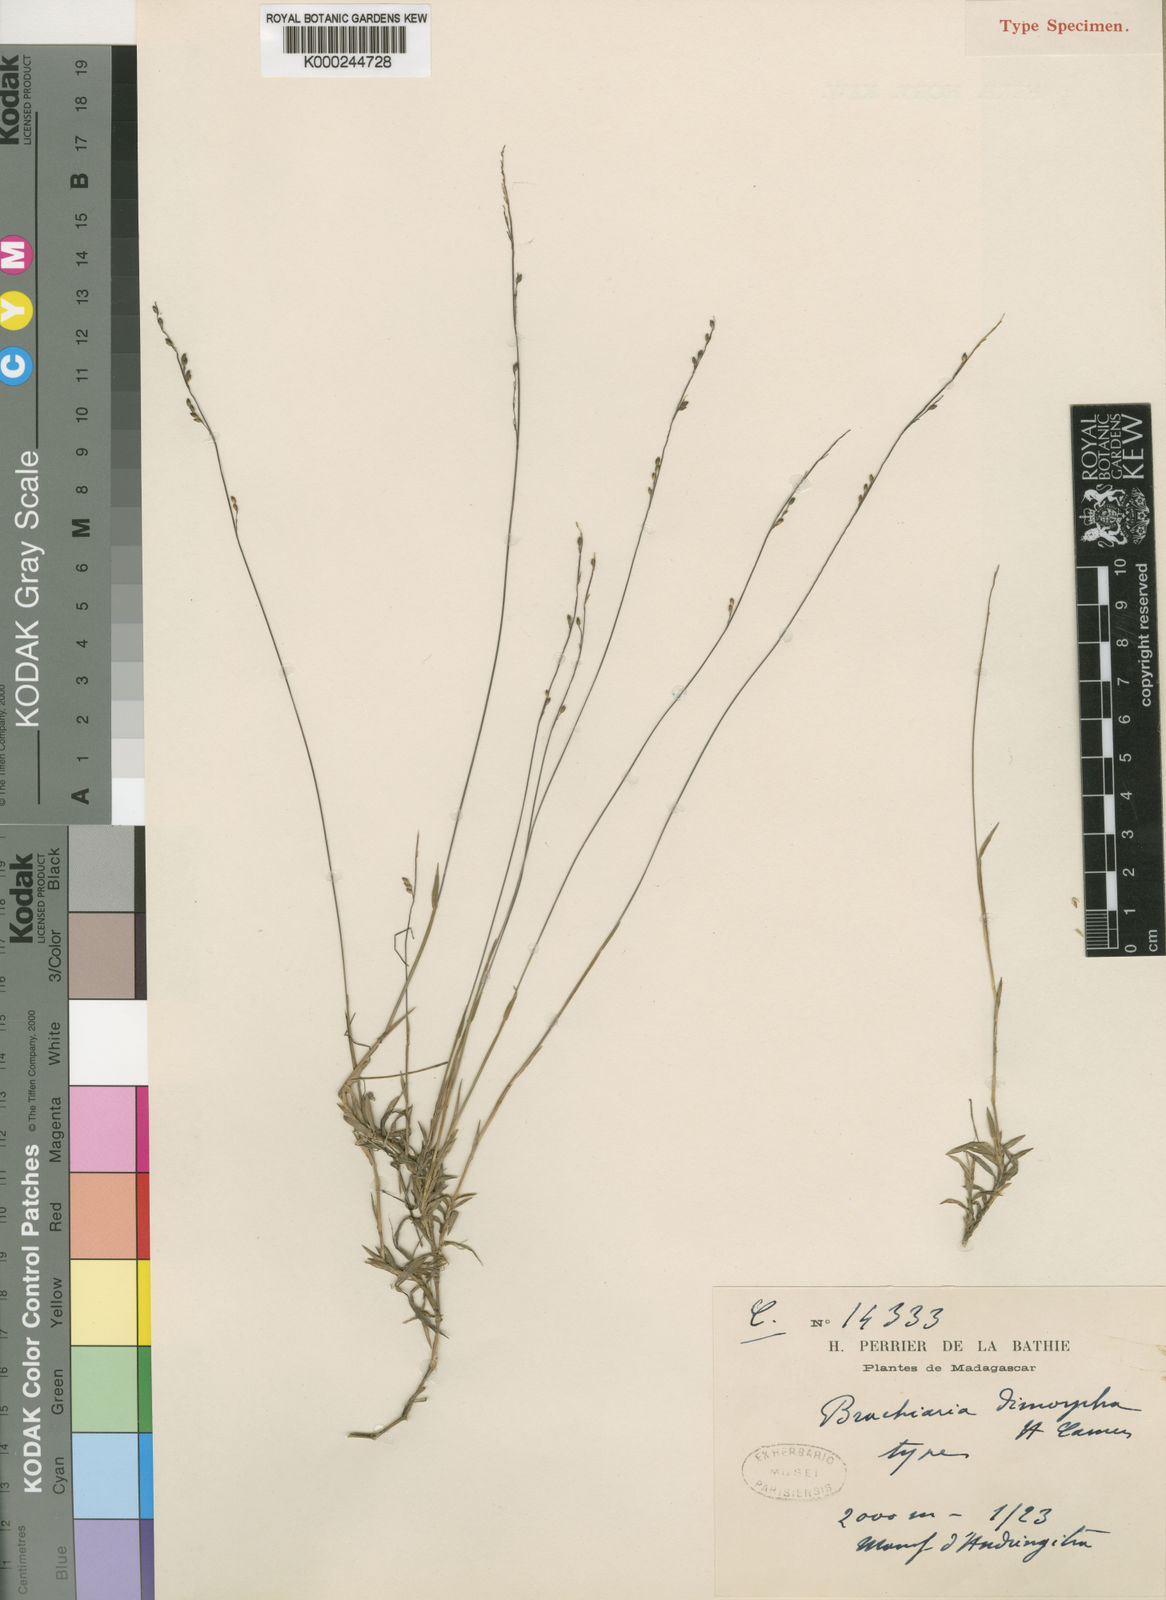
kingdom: Plantae
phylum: Tracheophyta
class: Liliopsida
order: Poales
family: Poaceae
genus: Urochloa
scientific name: Urochloa Brachiaria dimorpha
